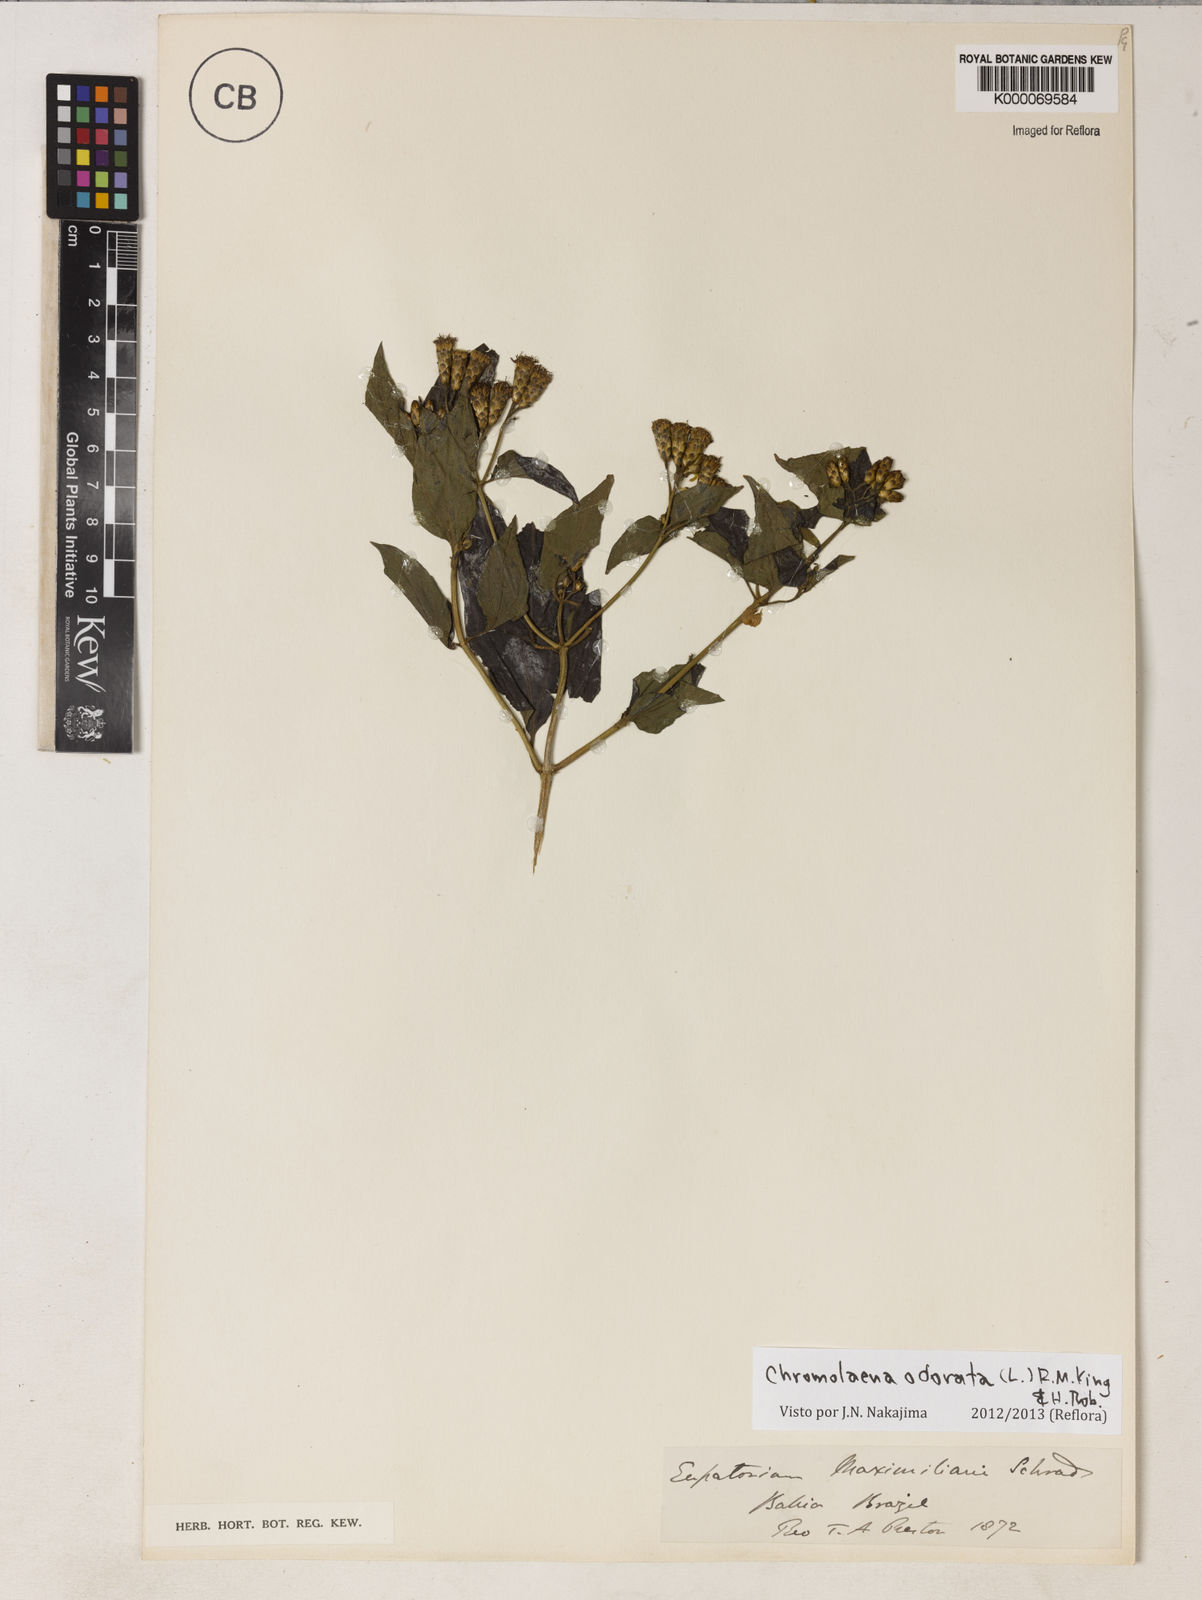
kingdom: Plantae
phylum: Tracheophyta
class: Magnoliopsida
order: Asterales
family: Asteraceae
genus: Chromolaena
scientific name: Chromolaena odorata
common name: Siamweed
